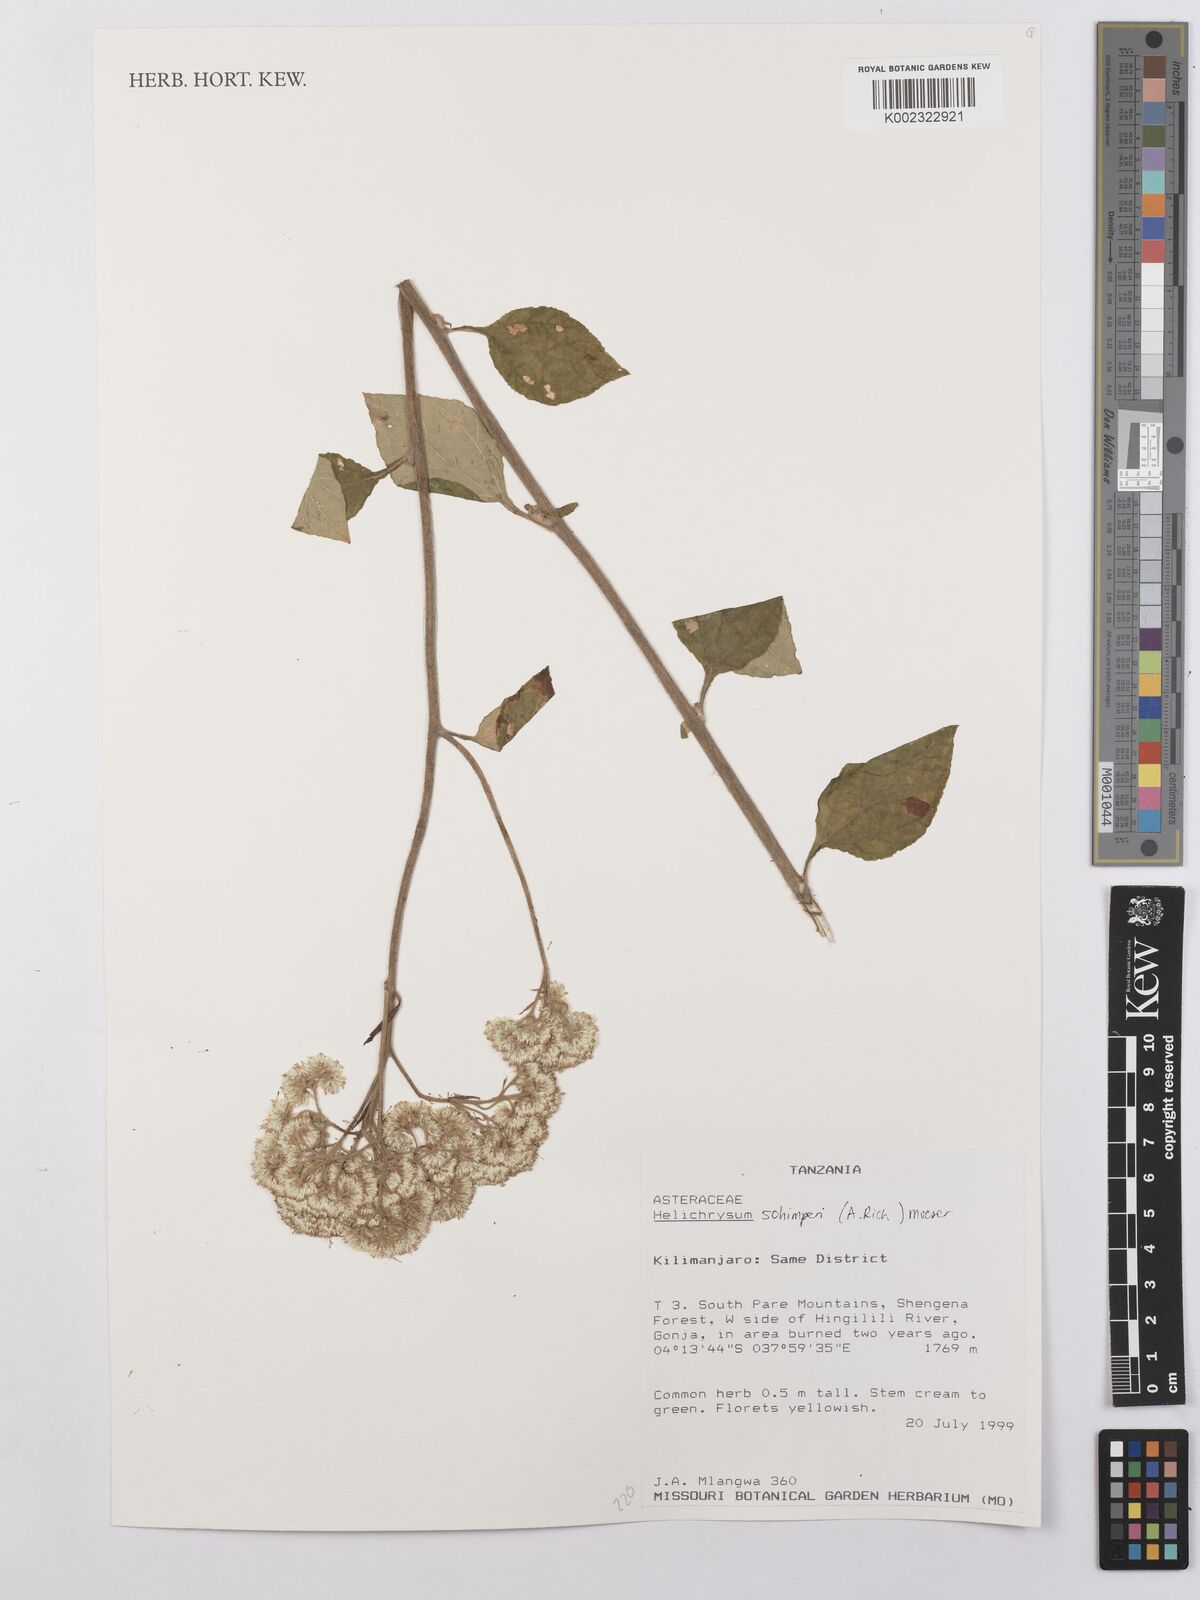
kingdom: Plantae
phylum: Tracheophyta
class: Magnoliopsida
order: Asterales
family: Asteraceae
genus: Helichrysum
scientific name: Helichrysum schimperi
